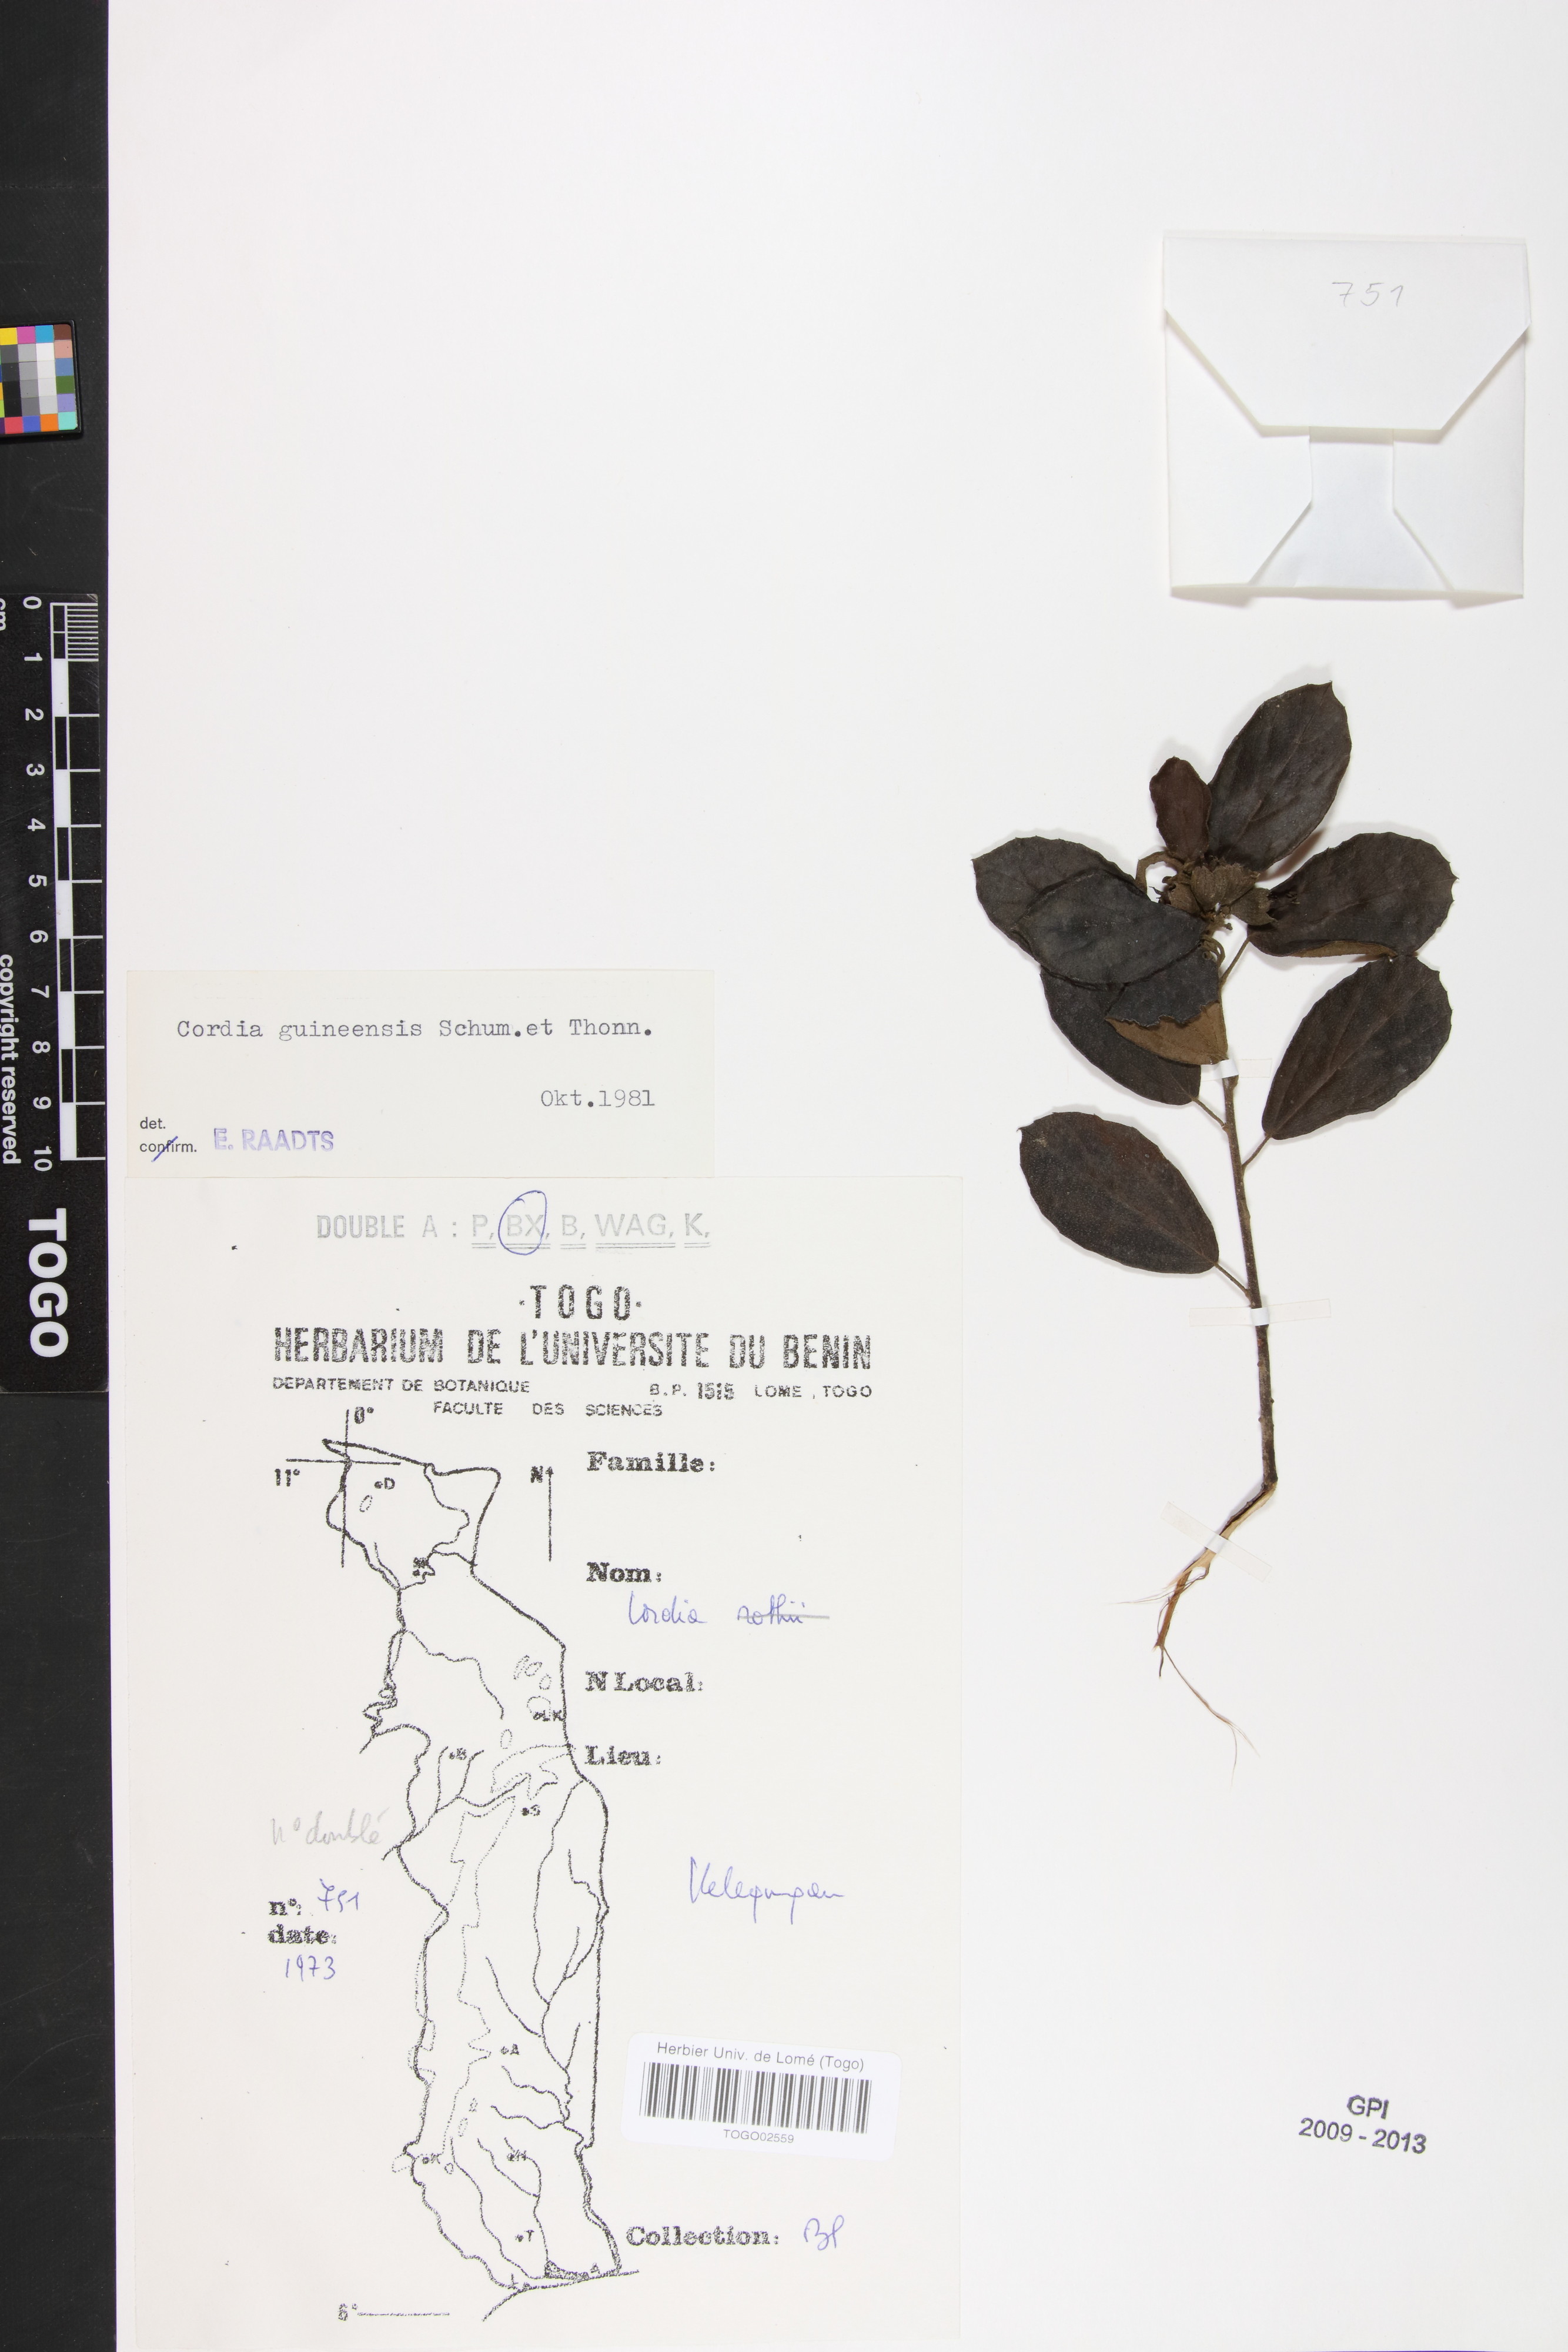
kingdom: Plantae
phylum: Tracheophyta
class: Magnoliopsida
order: Boraginales
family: Cordiaceae
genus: Cordia
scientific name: Cordia guineensis
